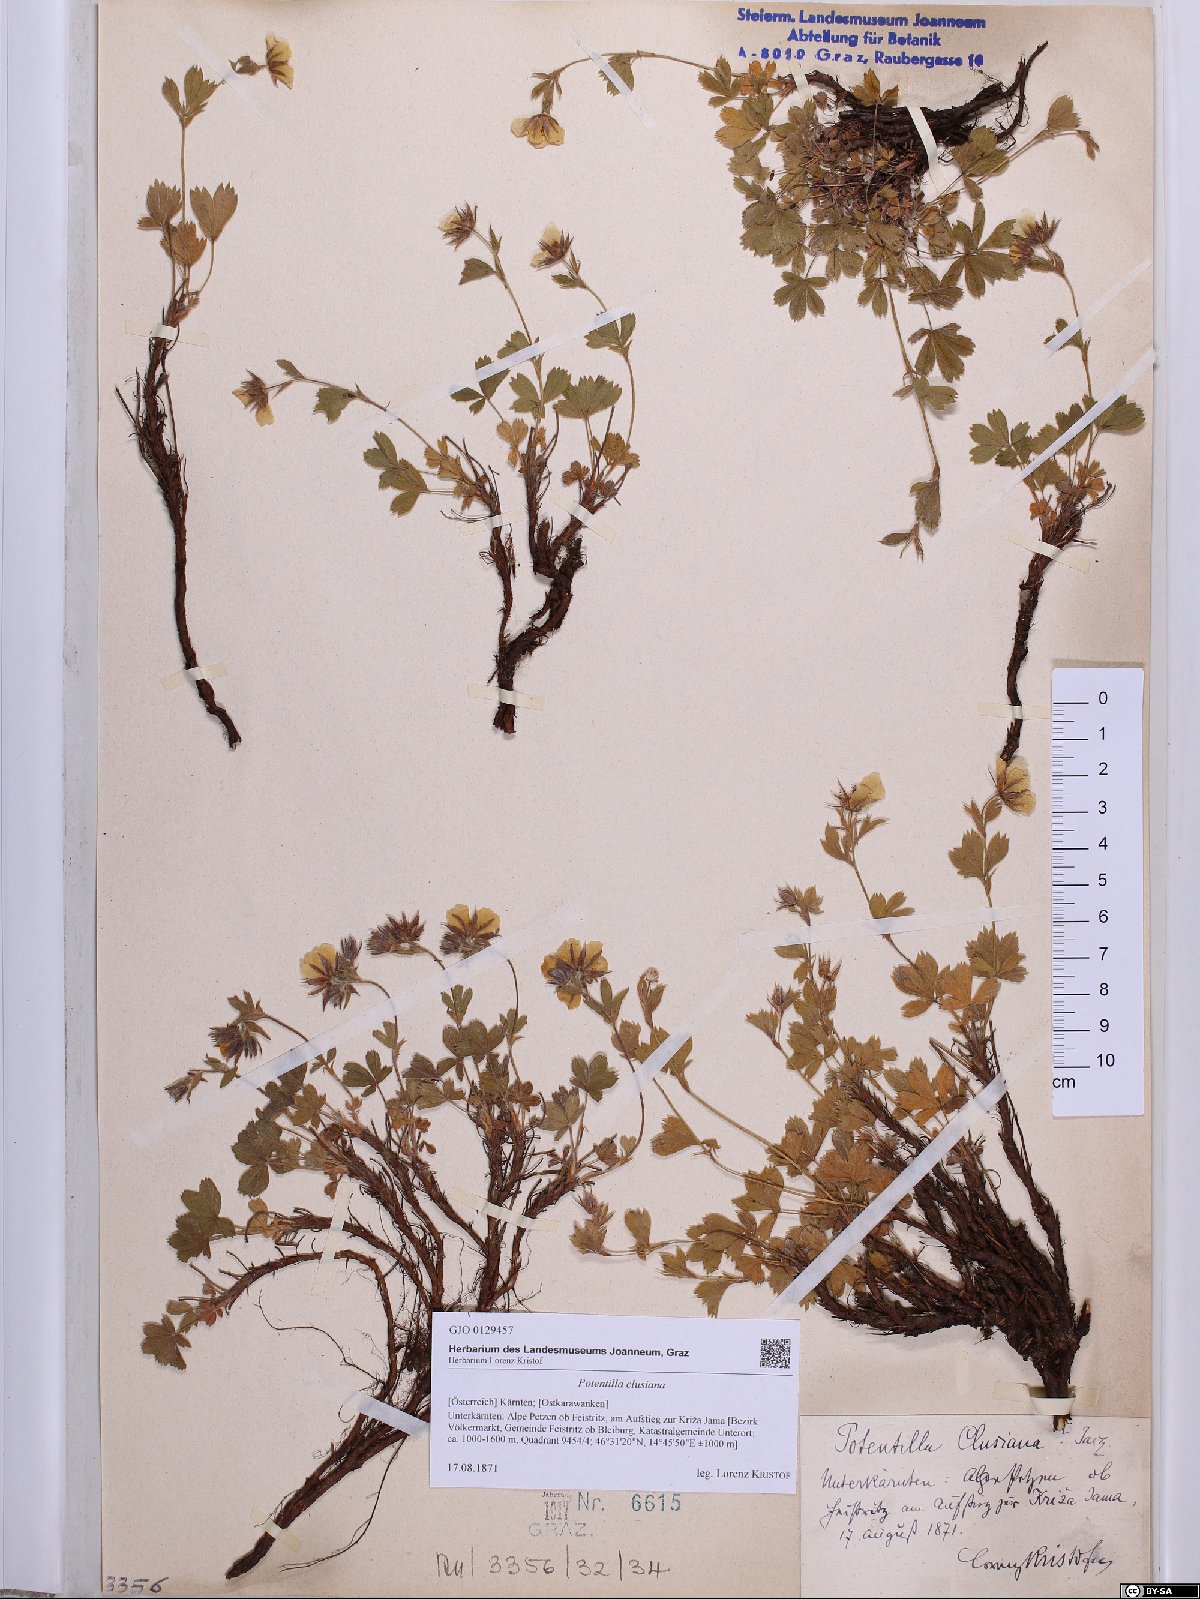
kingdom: Plantae
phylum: Tracheophyta
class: Magnoliopsida
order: Rosales
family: Rosaceae
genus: Potentilla
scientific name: Potentilla clusiana
